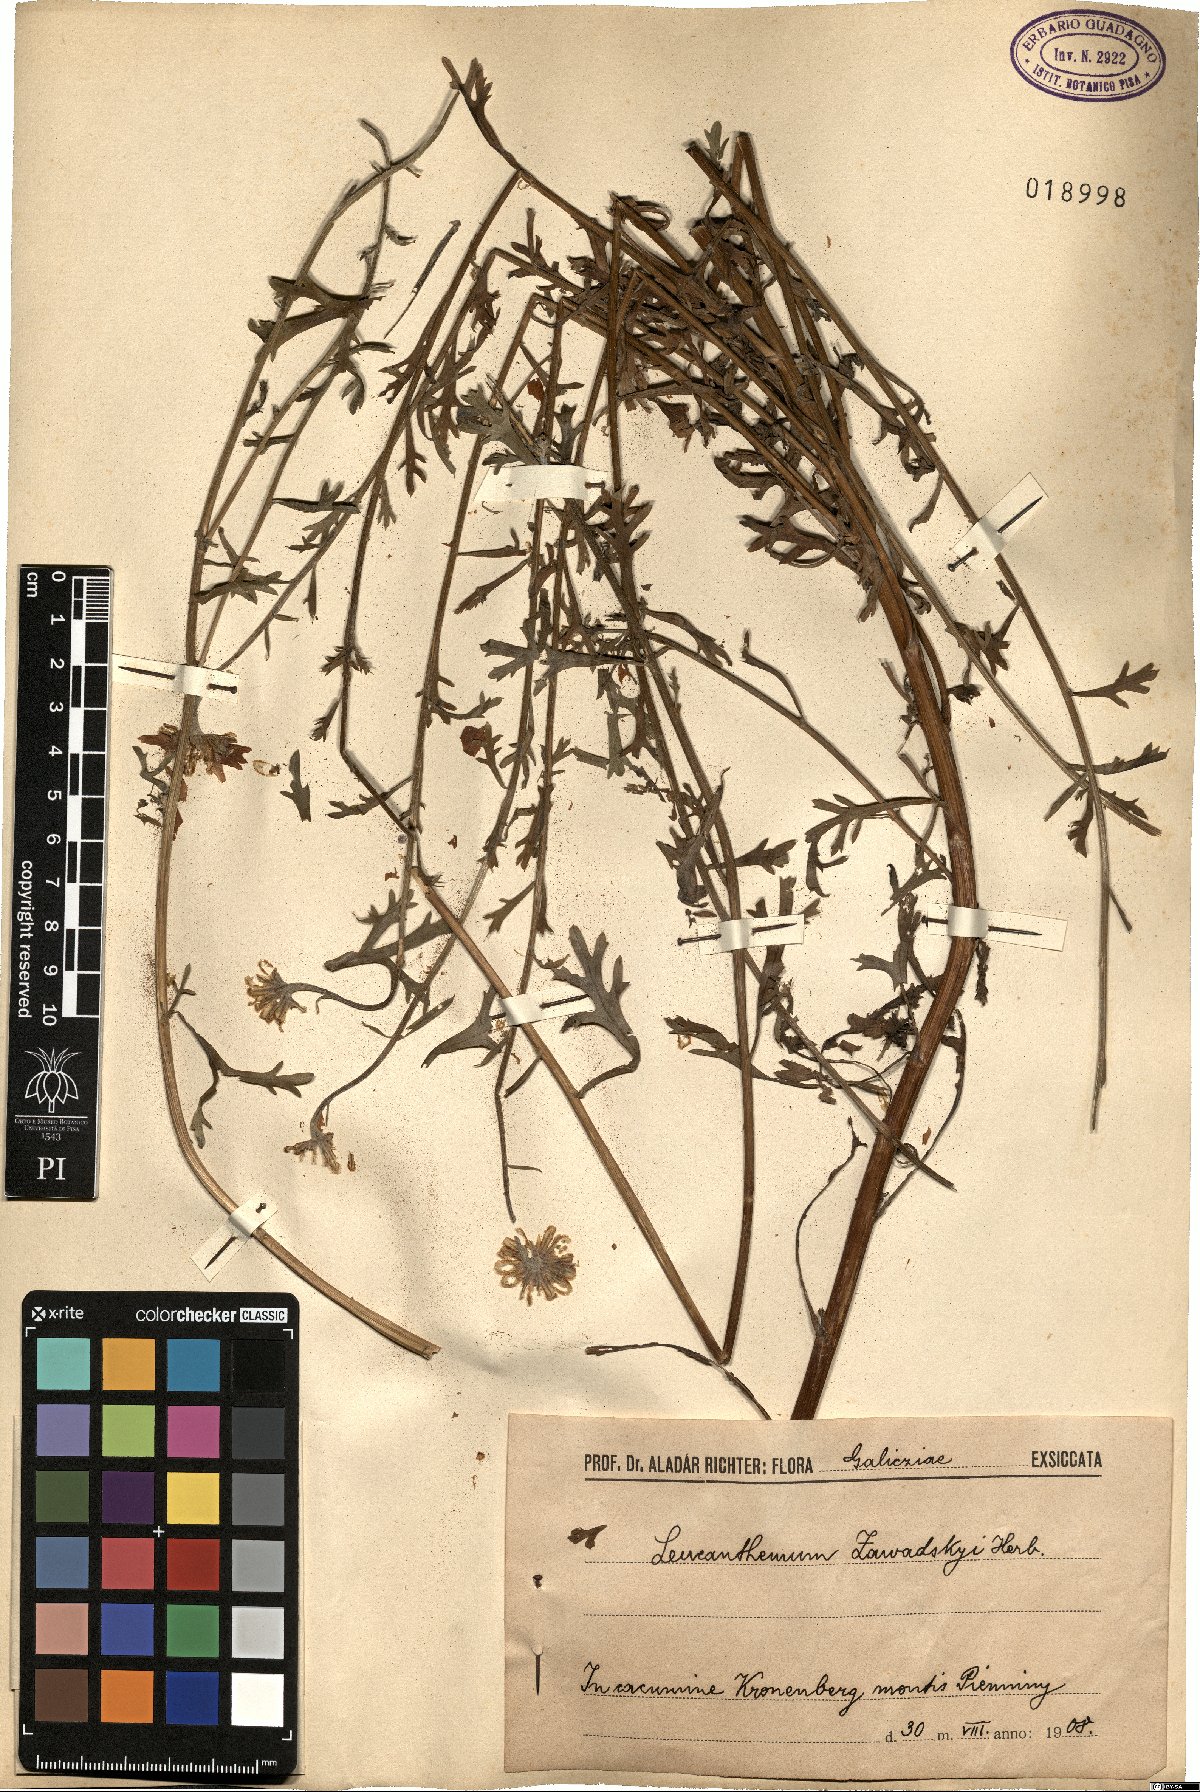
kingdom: Plantae
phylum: Tracheophyta
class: Magnoliopsida
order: Asterales
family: Asteraceae
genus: Leucanthemum
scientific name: Leucanthemum zawadskii
